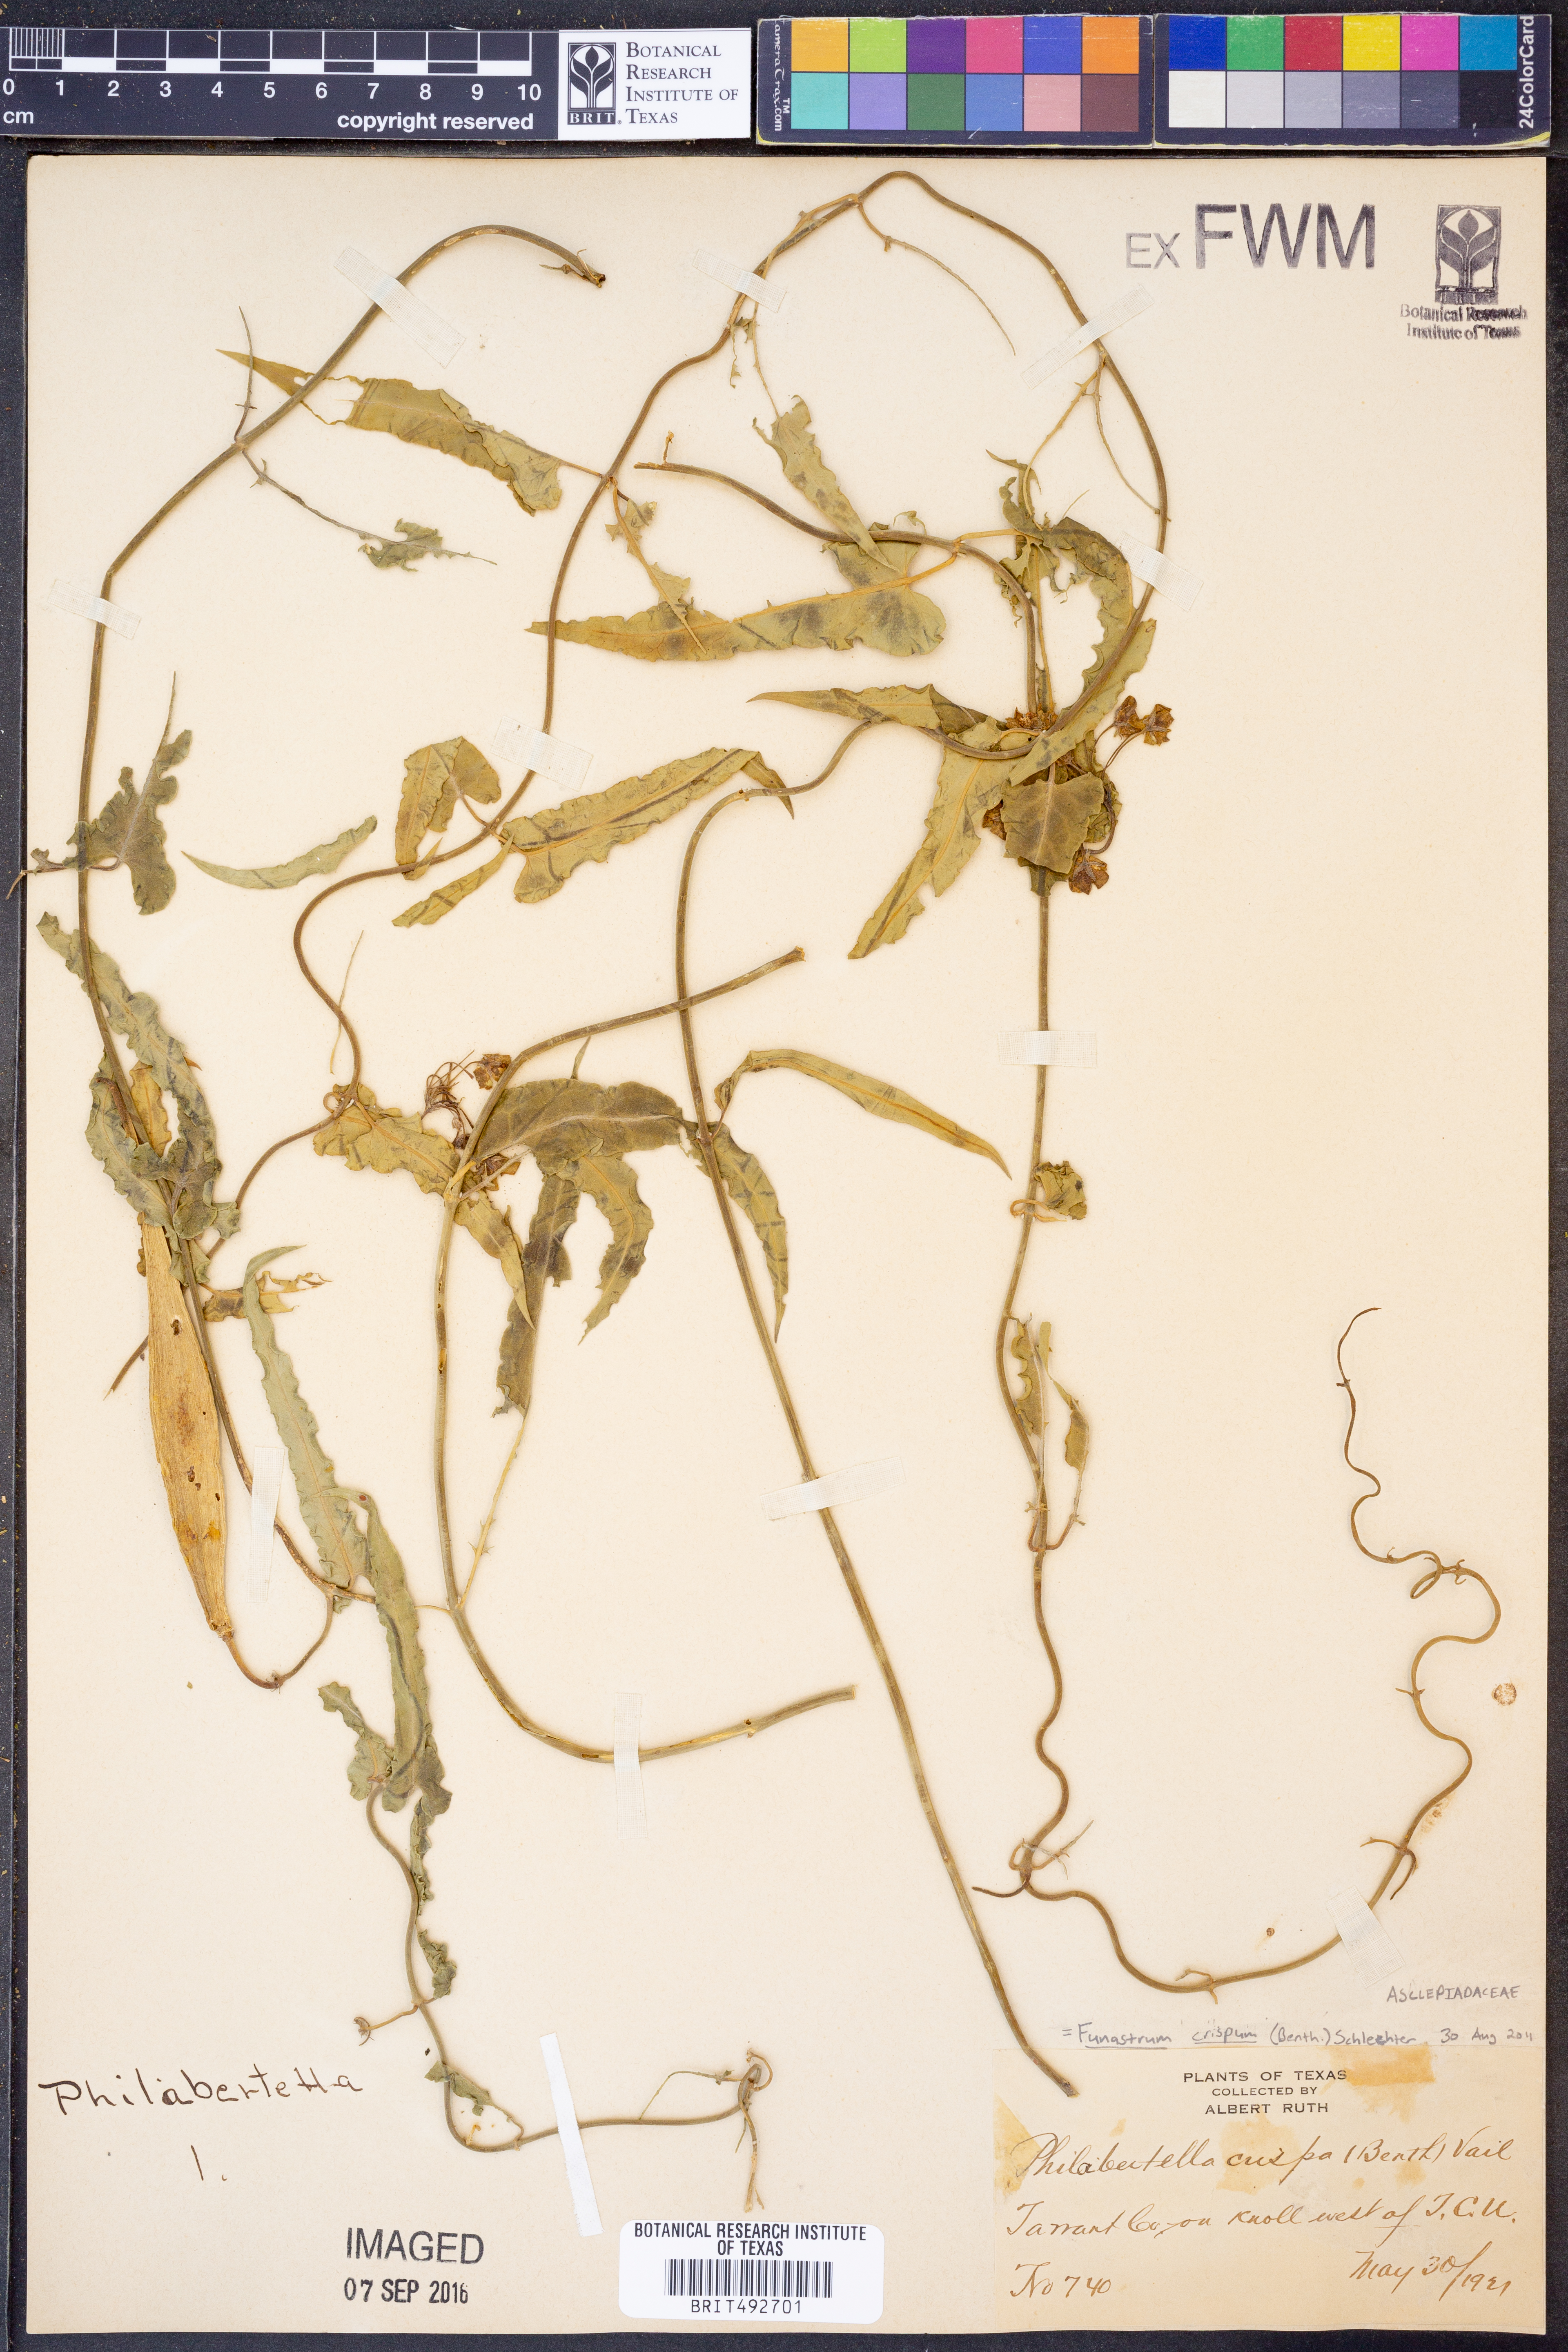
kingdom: Plantae
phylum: Tracheophyta
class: Magnoliopsida
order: Gentianales
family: Apocynaceae
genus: Funastrum
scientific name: Funastrum crispum
